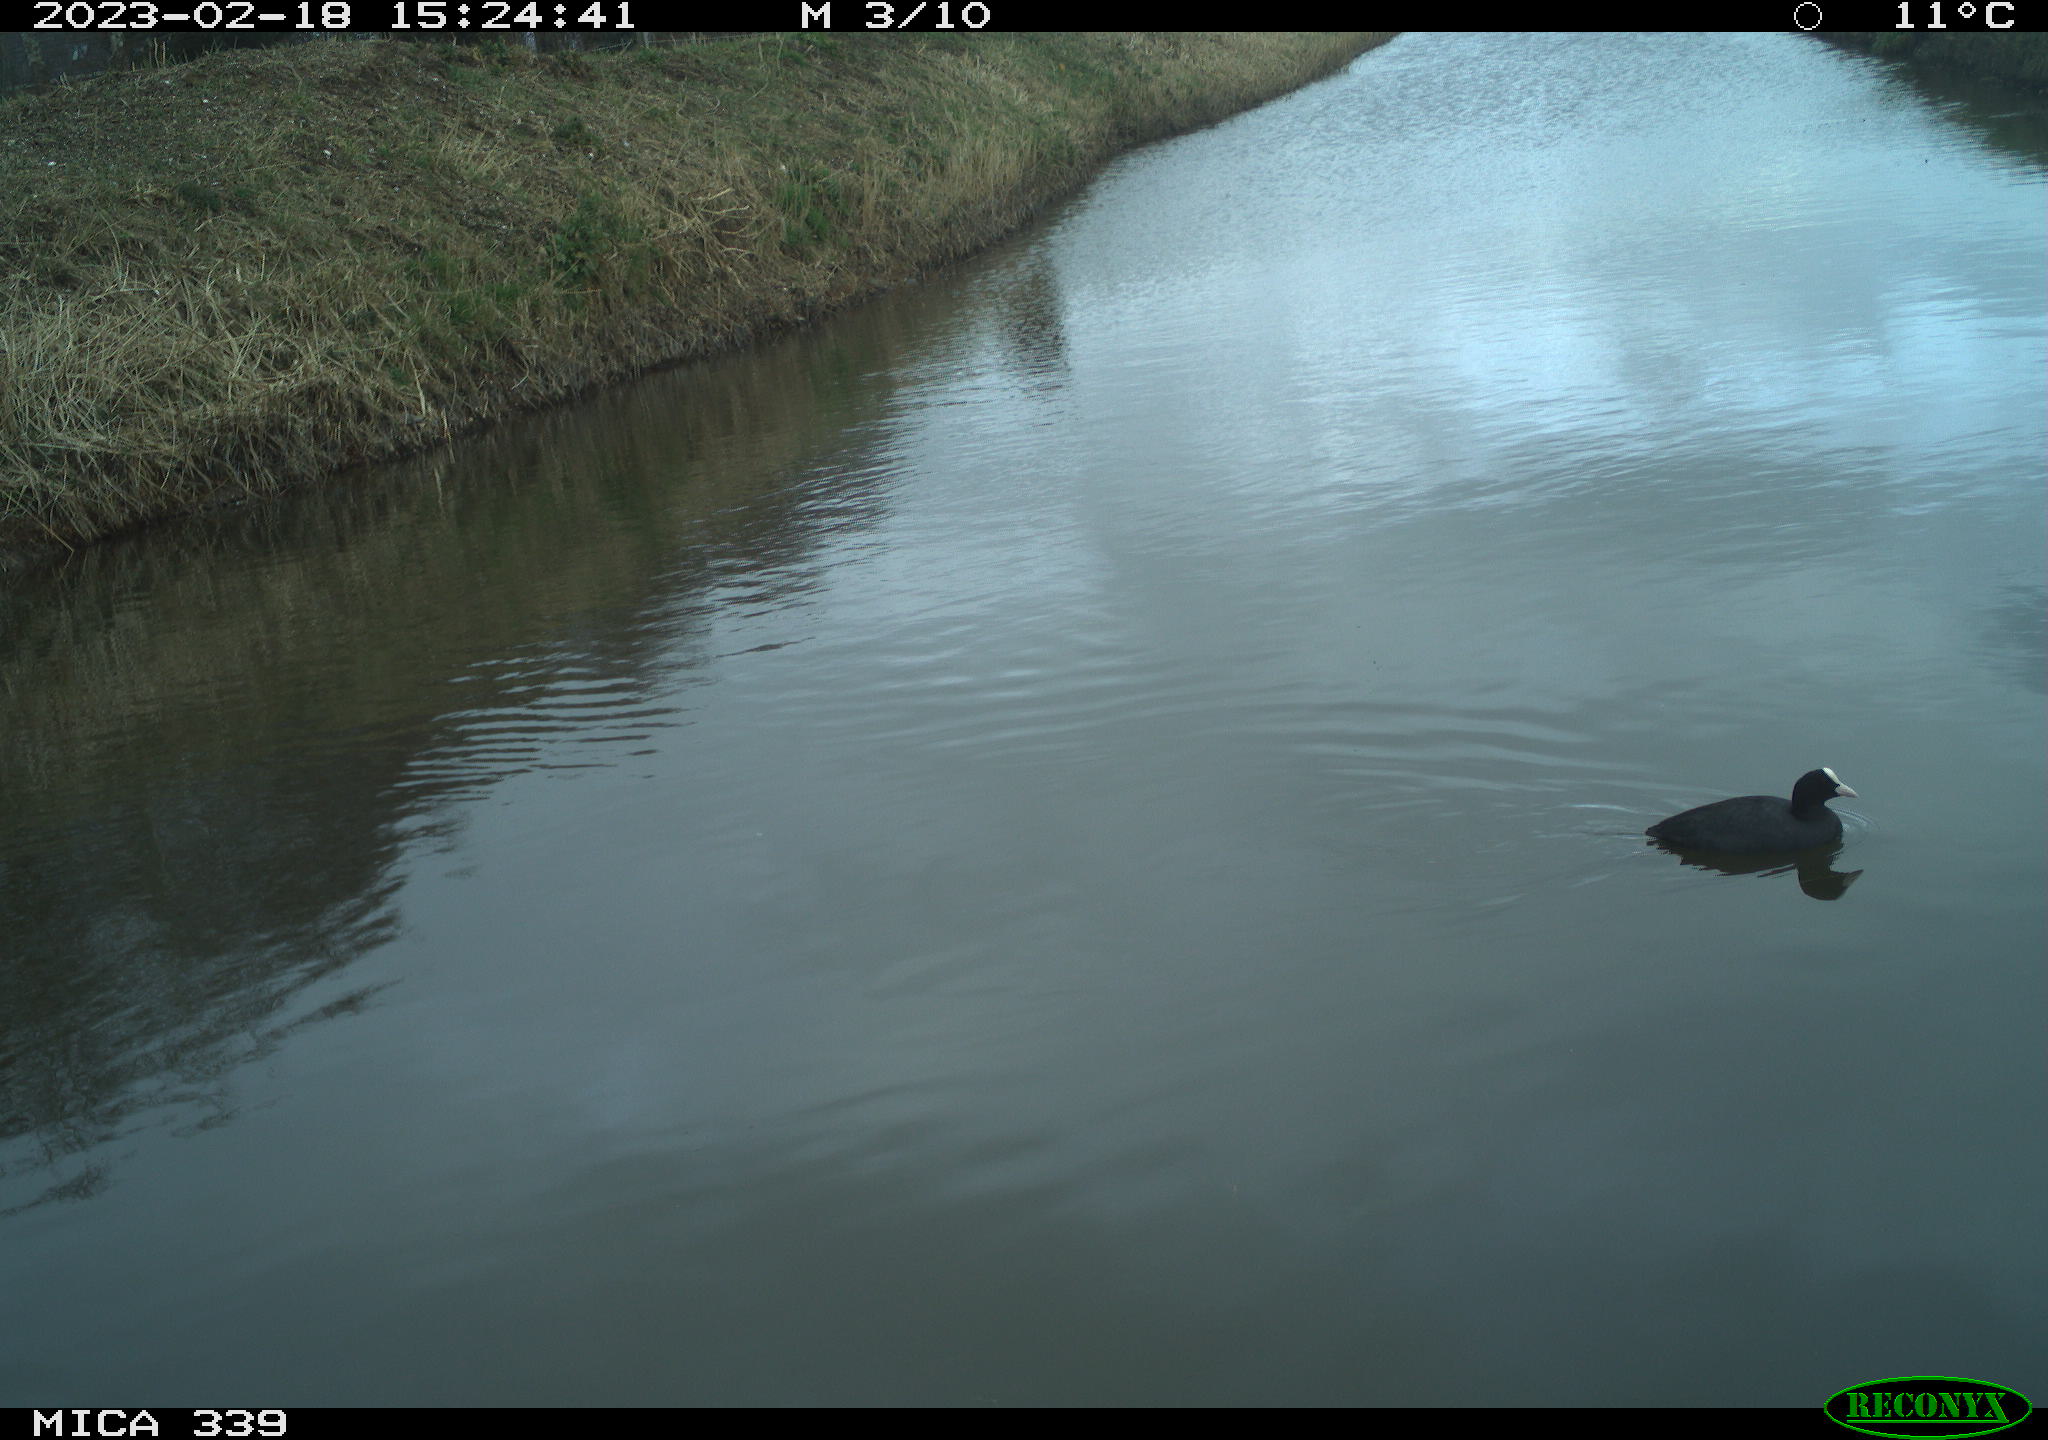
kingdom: Animalia
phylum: Chordata
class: Aves
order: Gruiformes
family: Rallidae
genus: Fulica
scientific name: Fulica atra
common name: Eurasian coot
